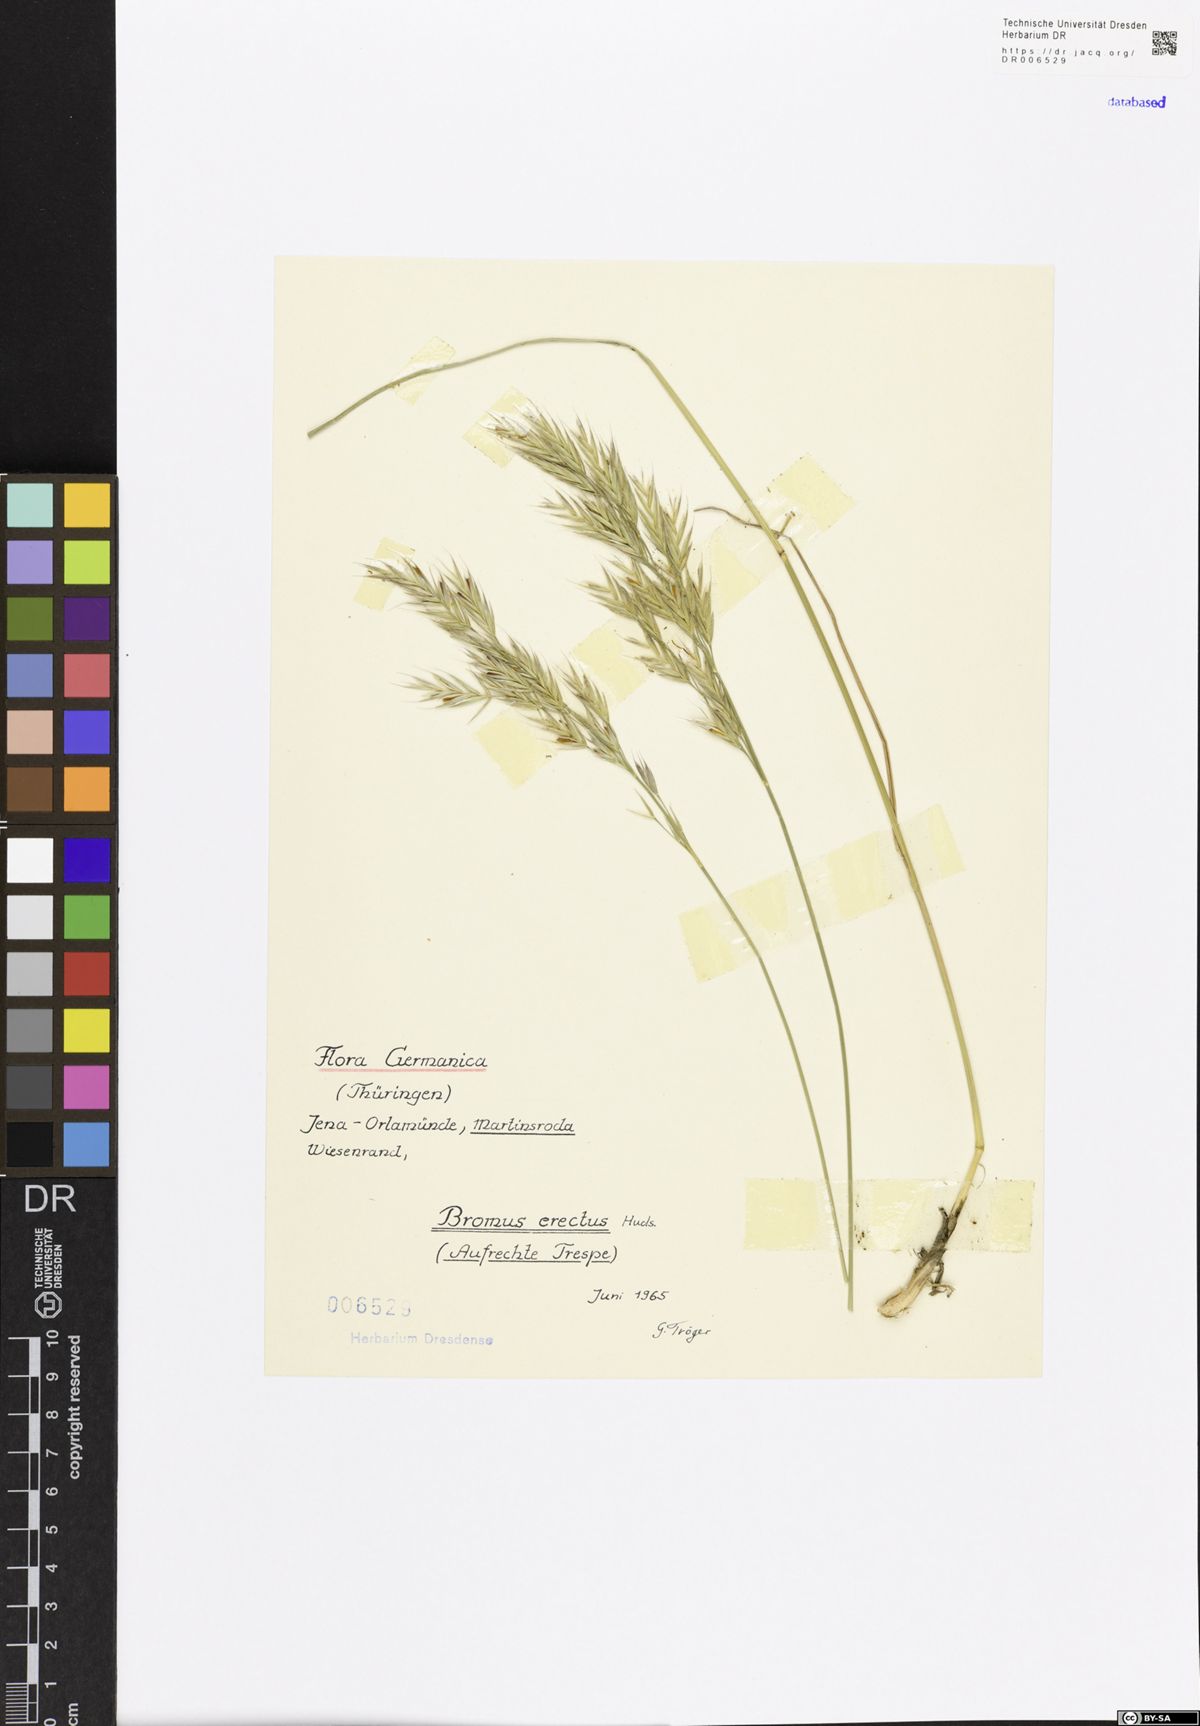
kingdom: Plantae
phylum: Tracheophyta
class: Liliopsida
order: Poales
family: Poaceae
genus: Bromus
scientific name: Bromus erectus
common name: Erect brome
